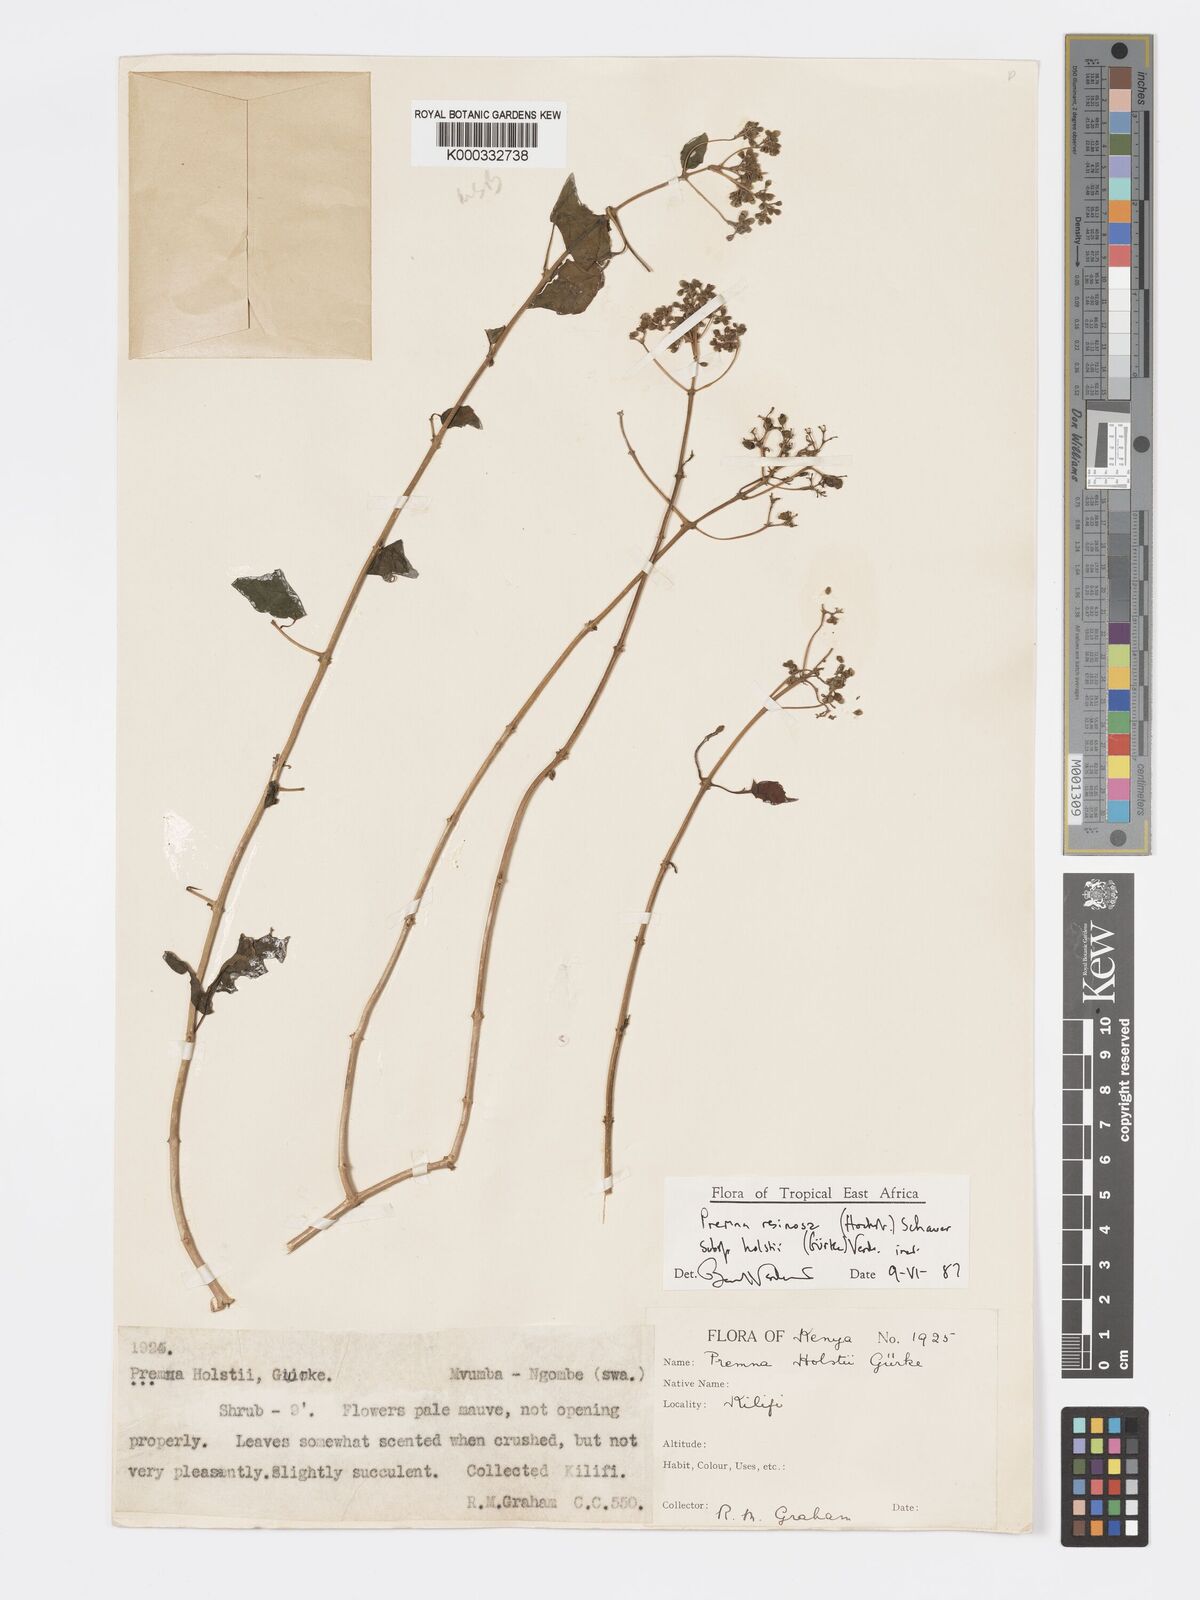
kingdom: Plantae
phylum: Tracheophyta
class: Magnoliopsida
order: Lamiales
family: Lamiaceae
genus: Premna
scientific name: Premna resinosa
